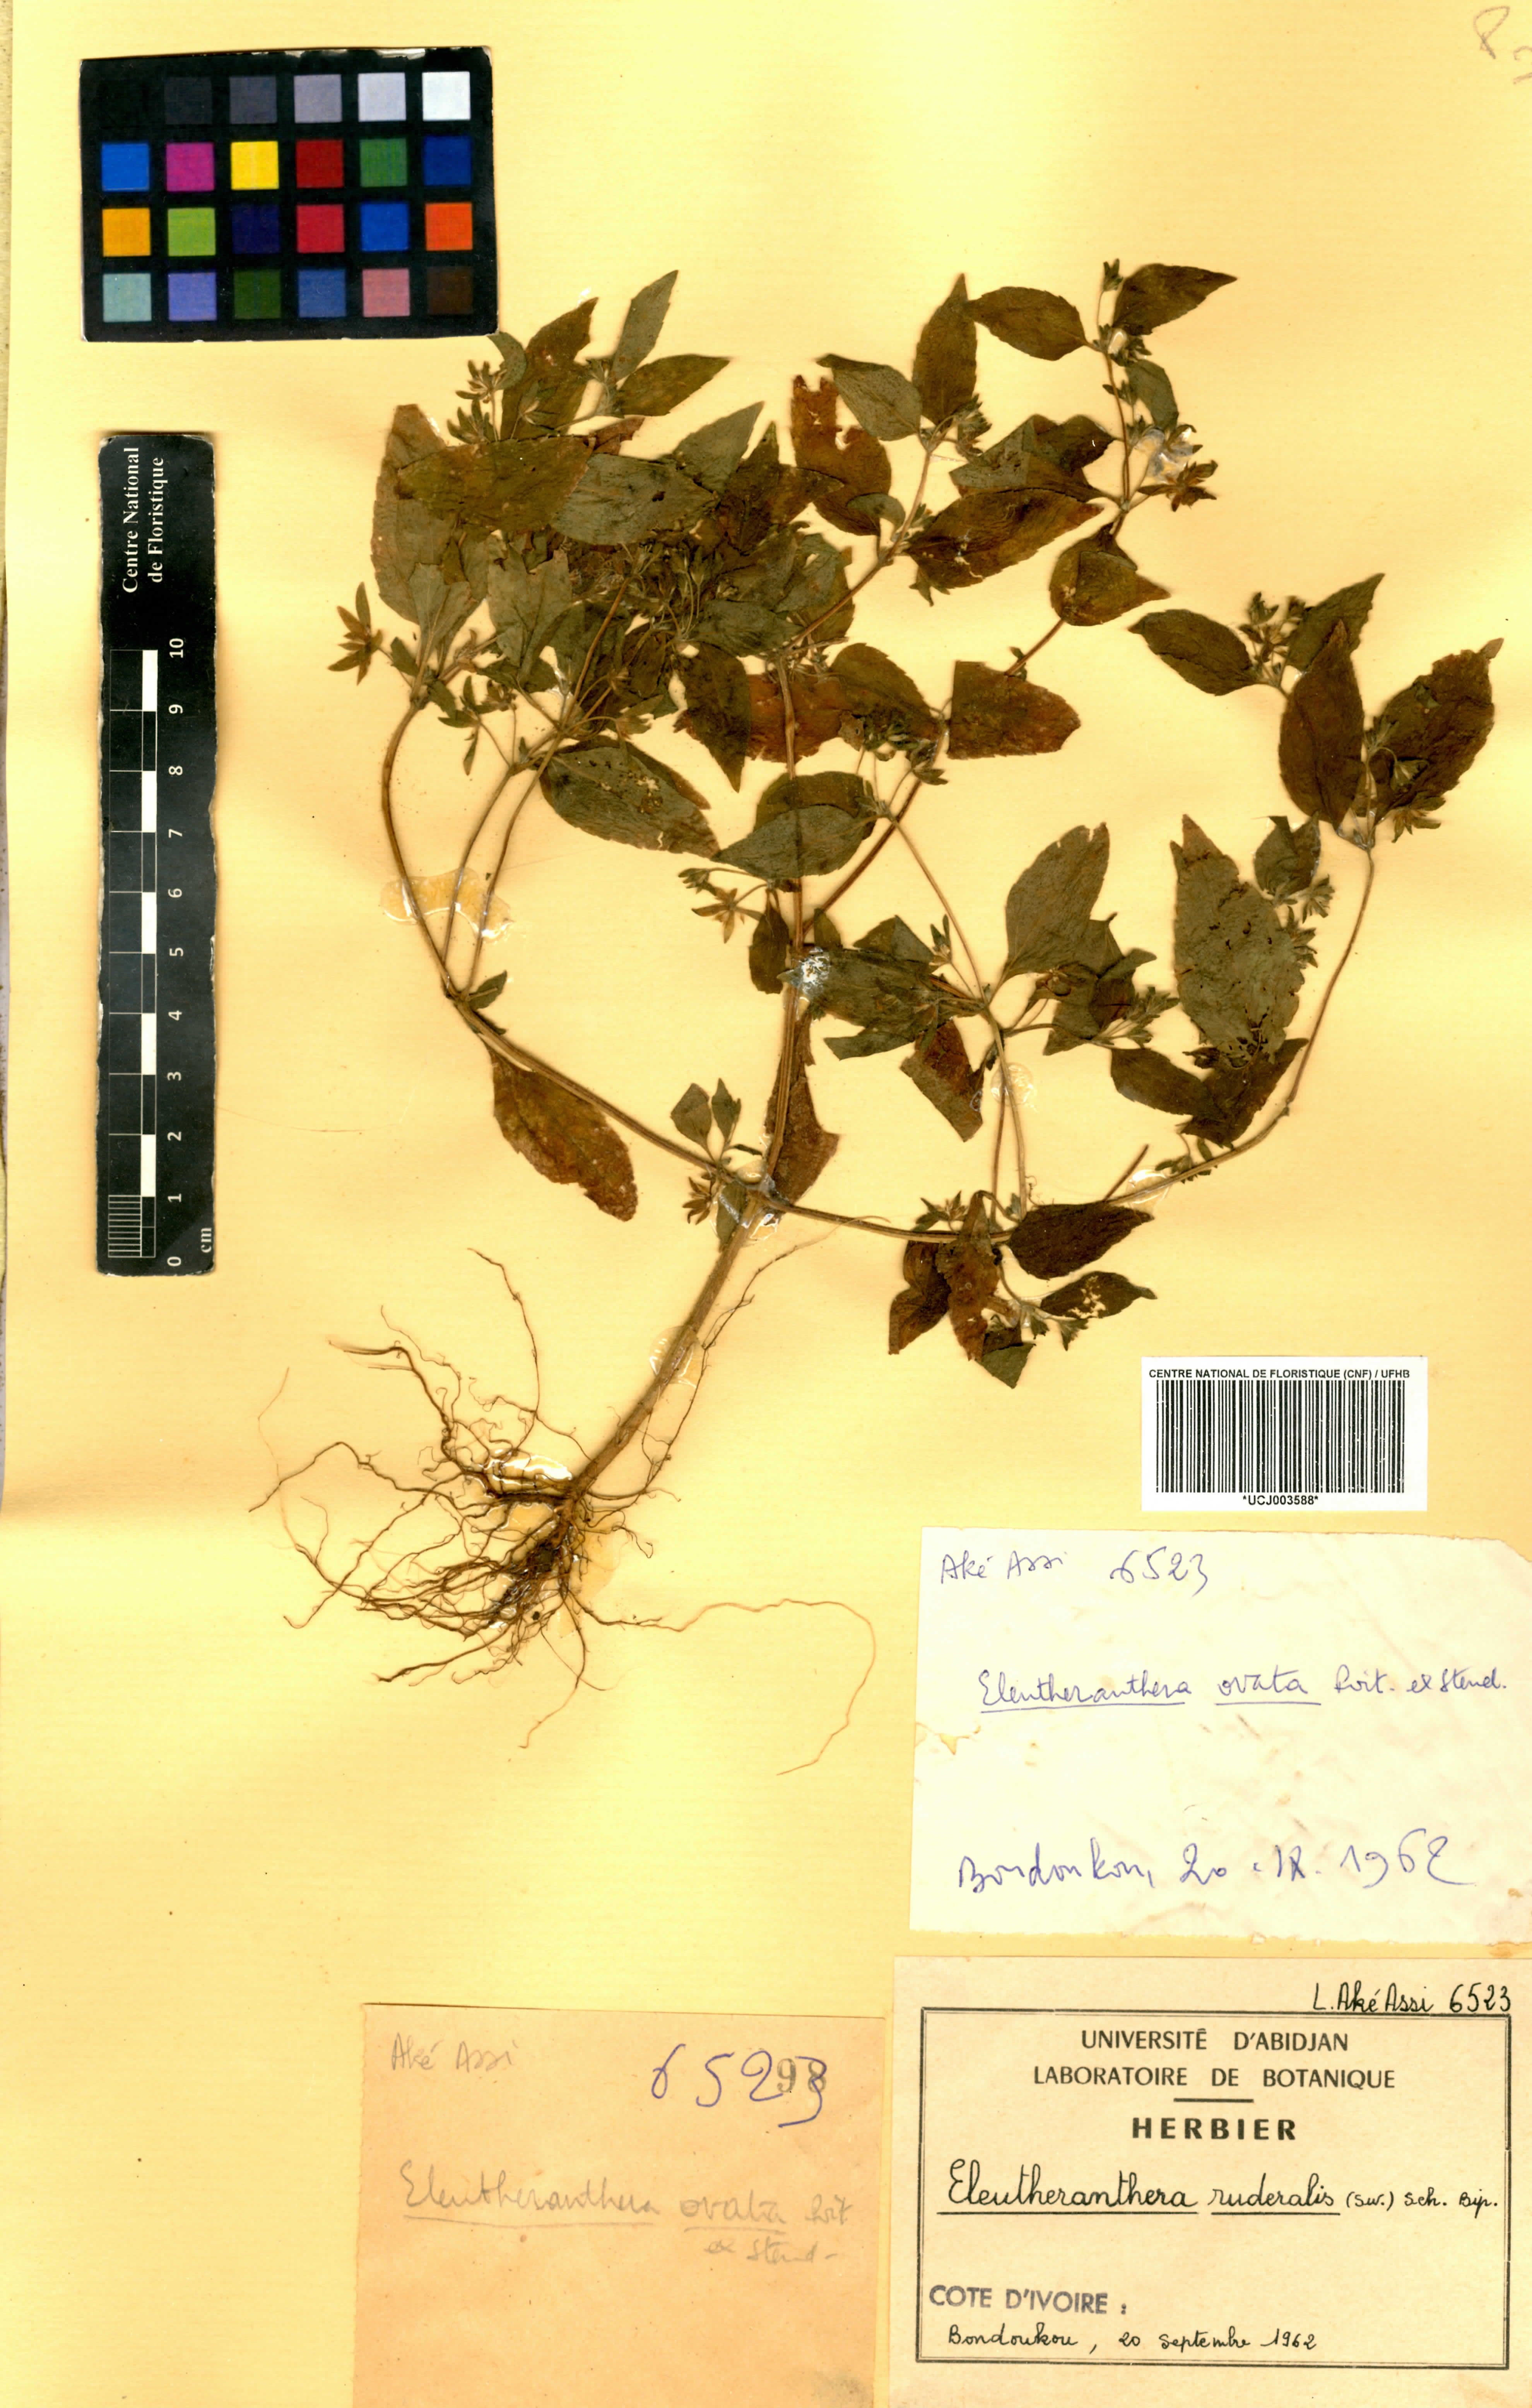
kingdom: Plantae
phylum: Tracheophyta
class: Magnoliopsida
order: Asterales
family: Asteraceae
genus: Eleutheranthera
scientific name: Eleutheranthera ruderalis
